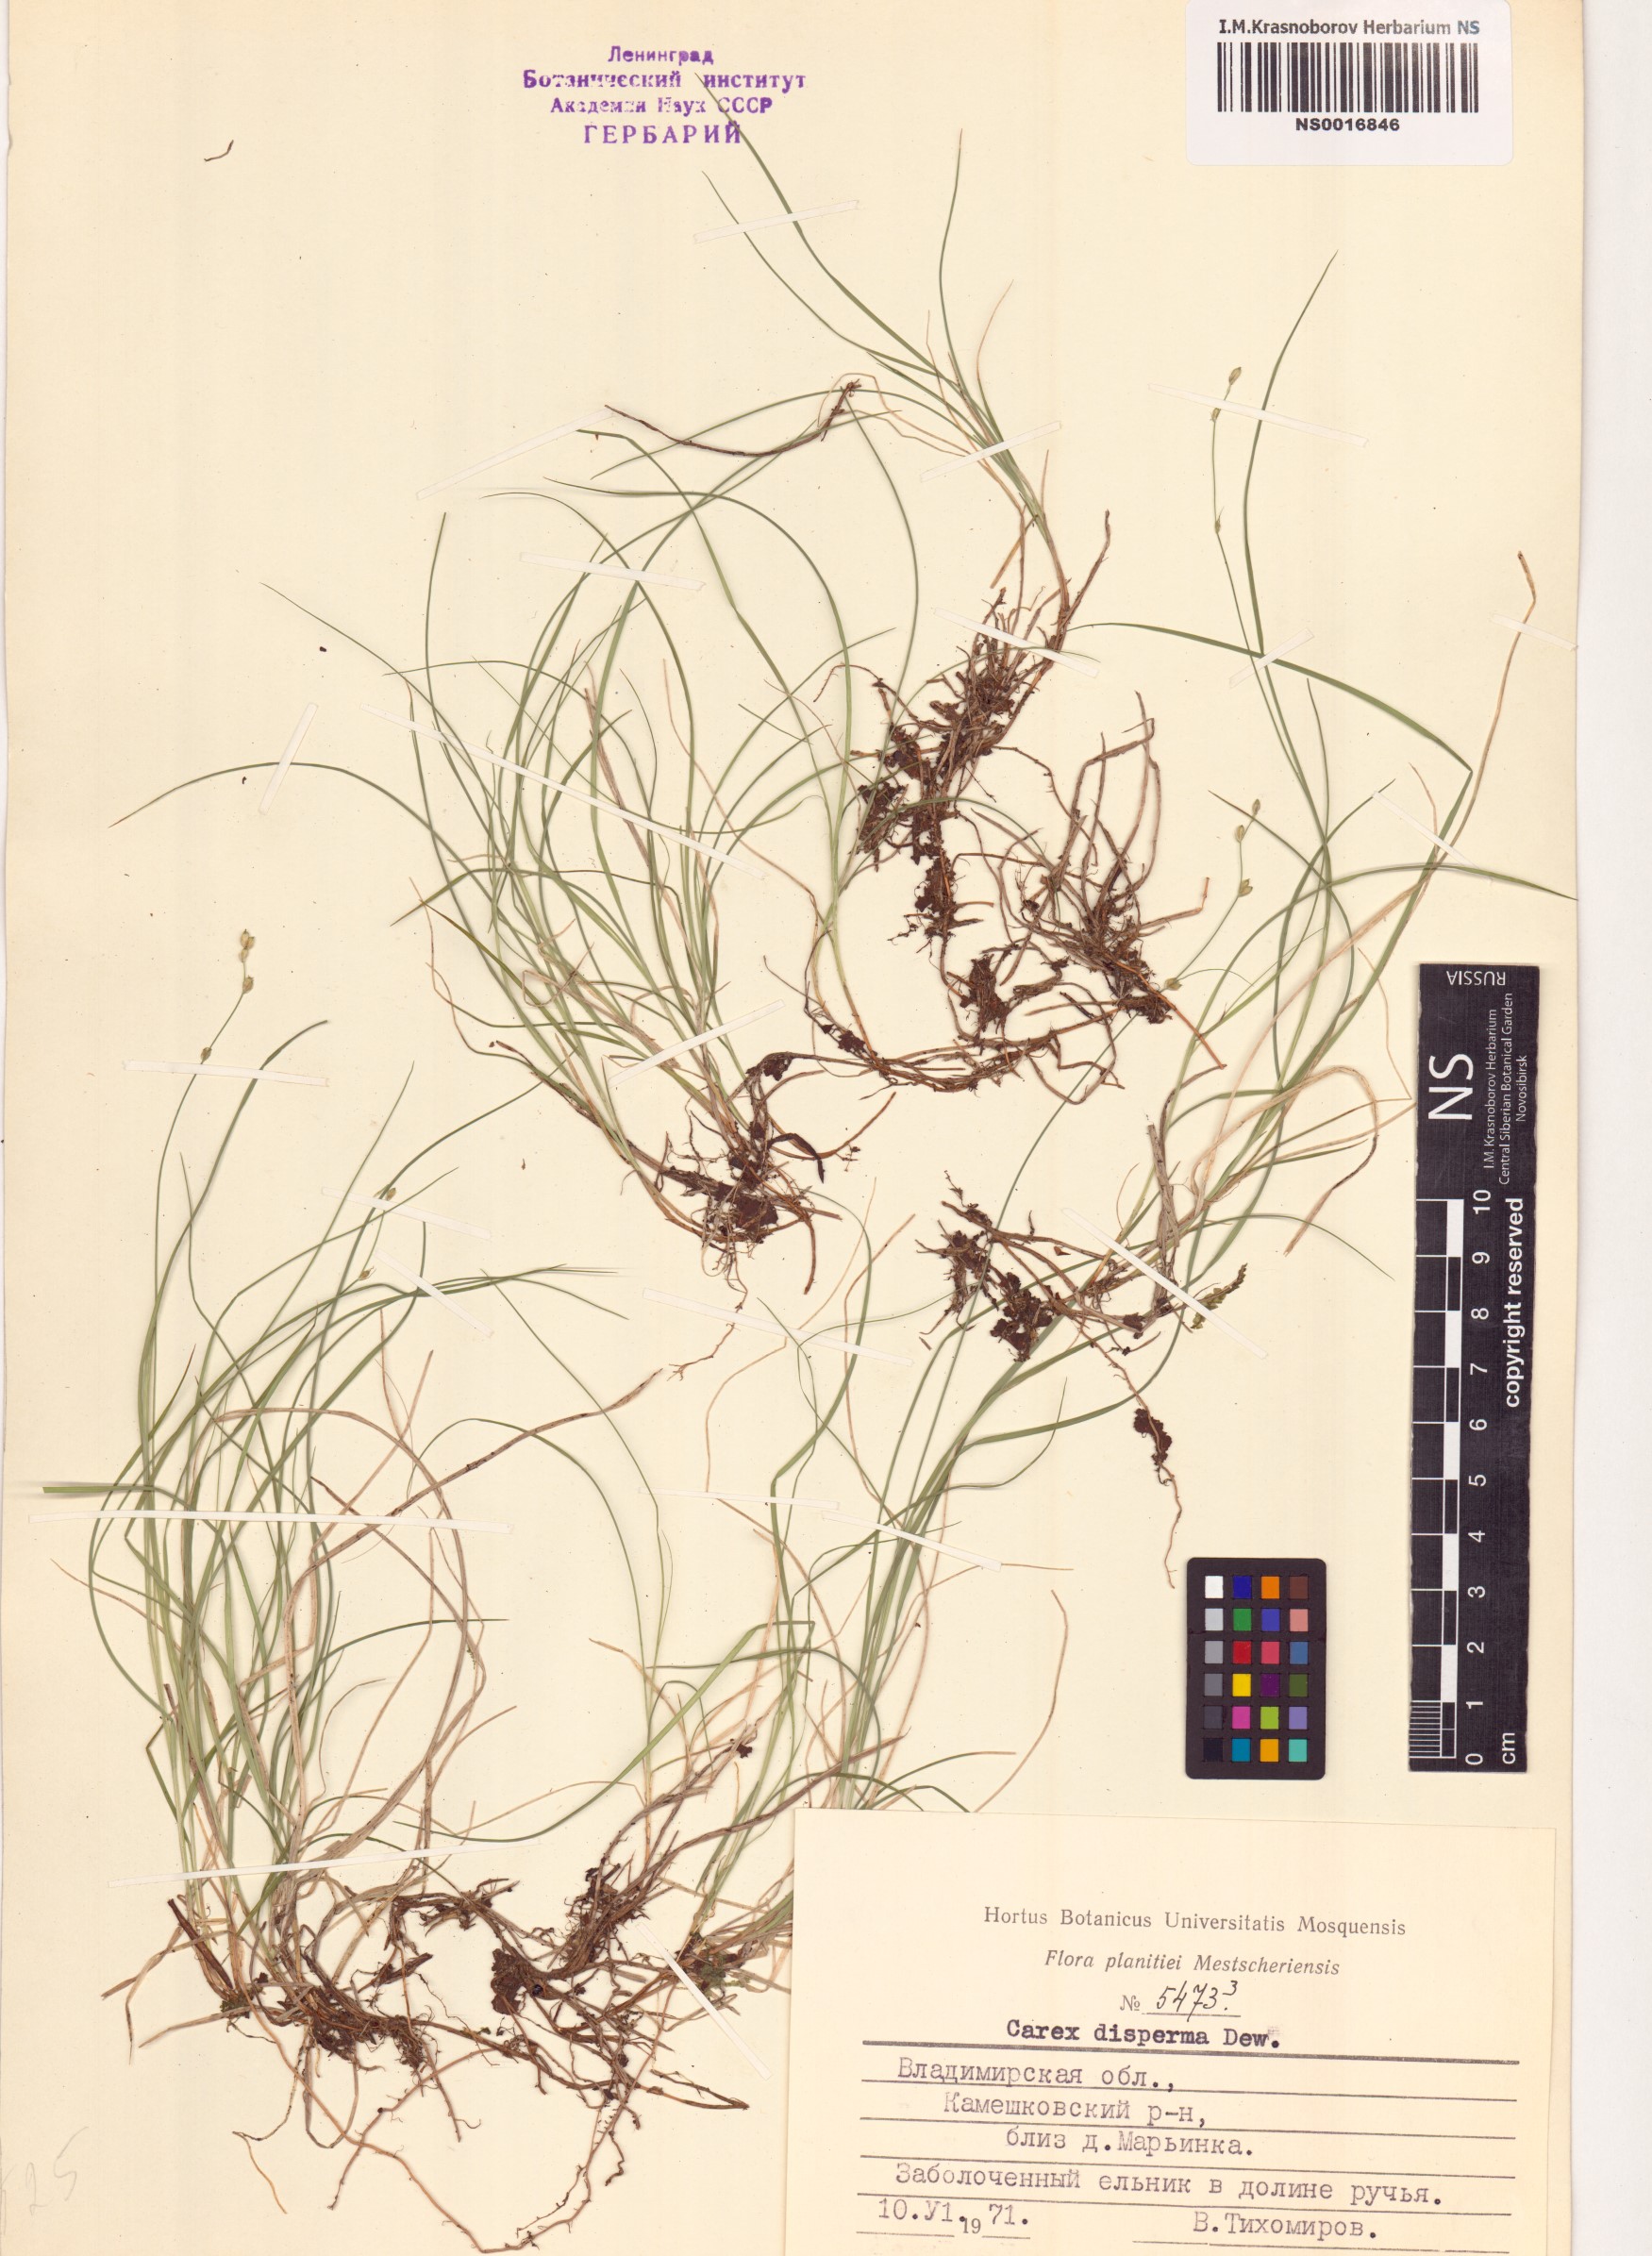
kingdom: Plantae
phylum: Tracheophyta
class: Liliopsida
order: Poales
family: Cyperaceae
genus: Carex
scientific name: Carex disperma
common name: Short-leaved sedge
